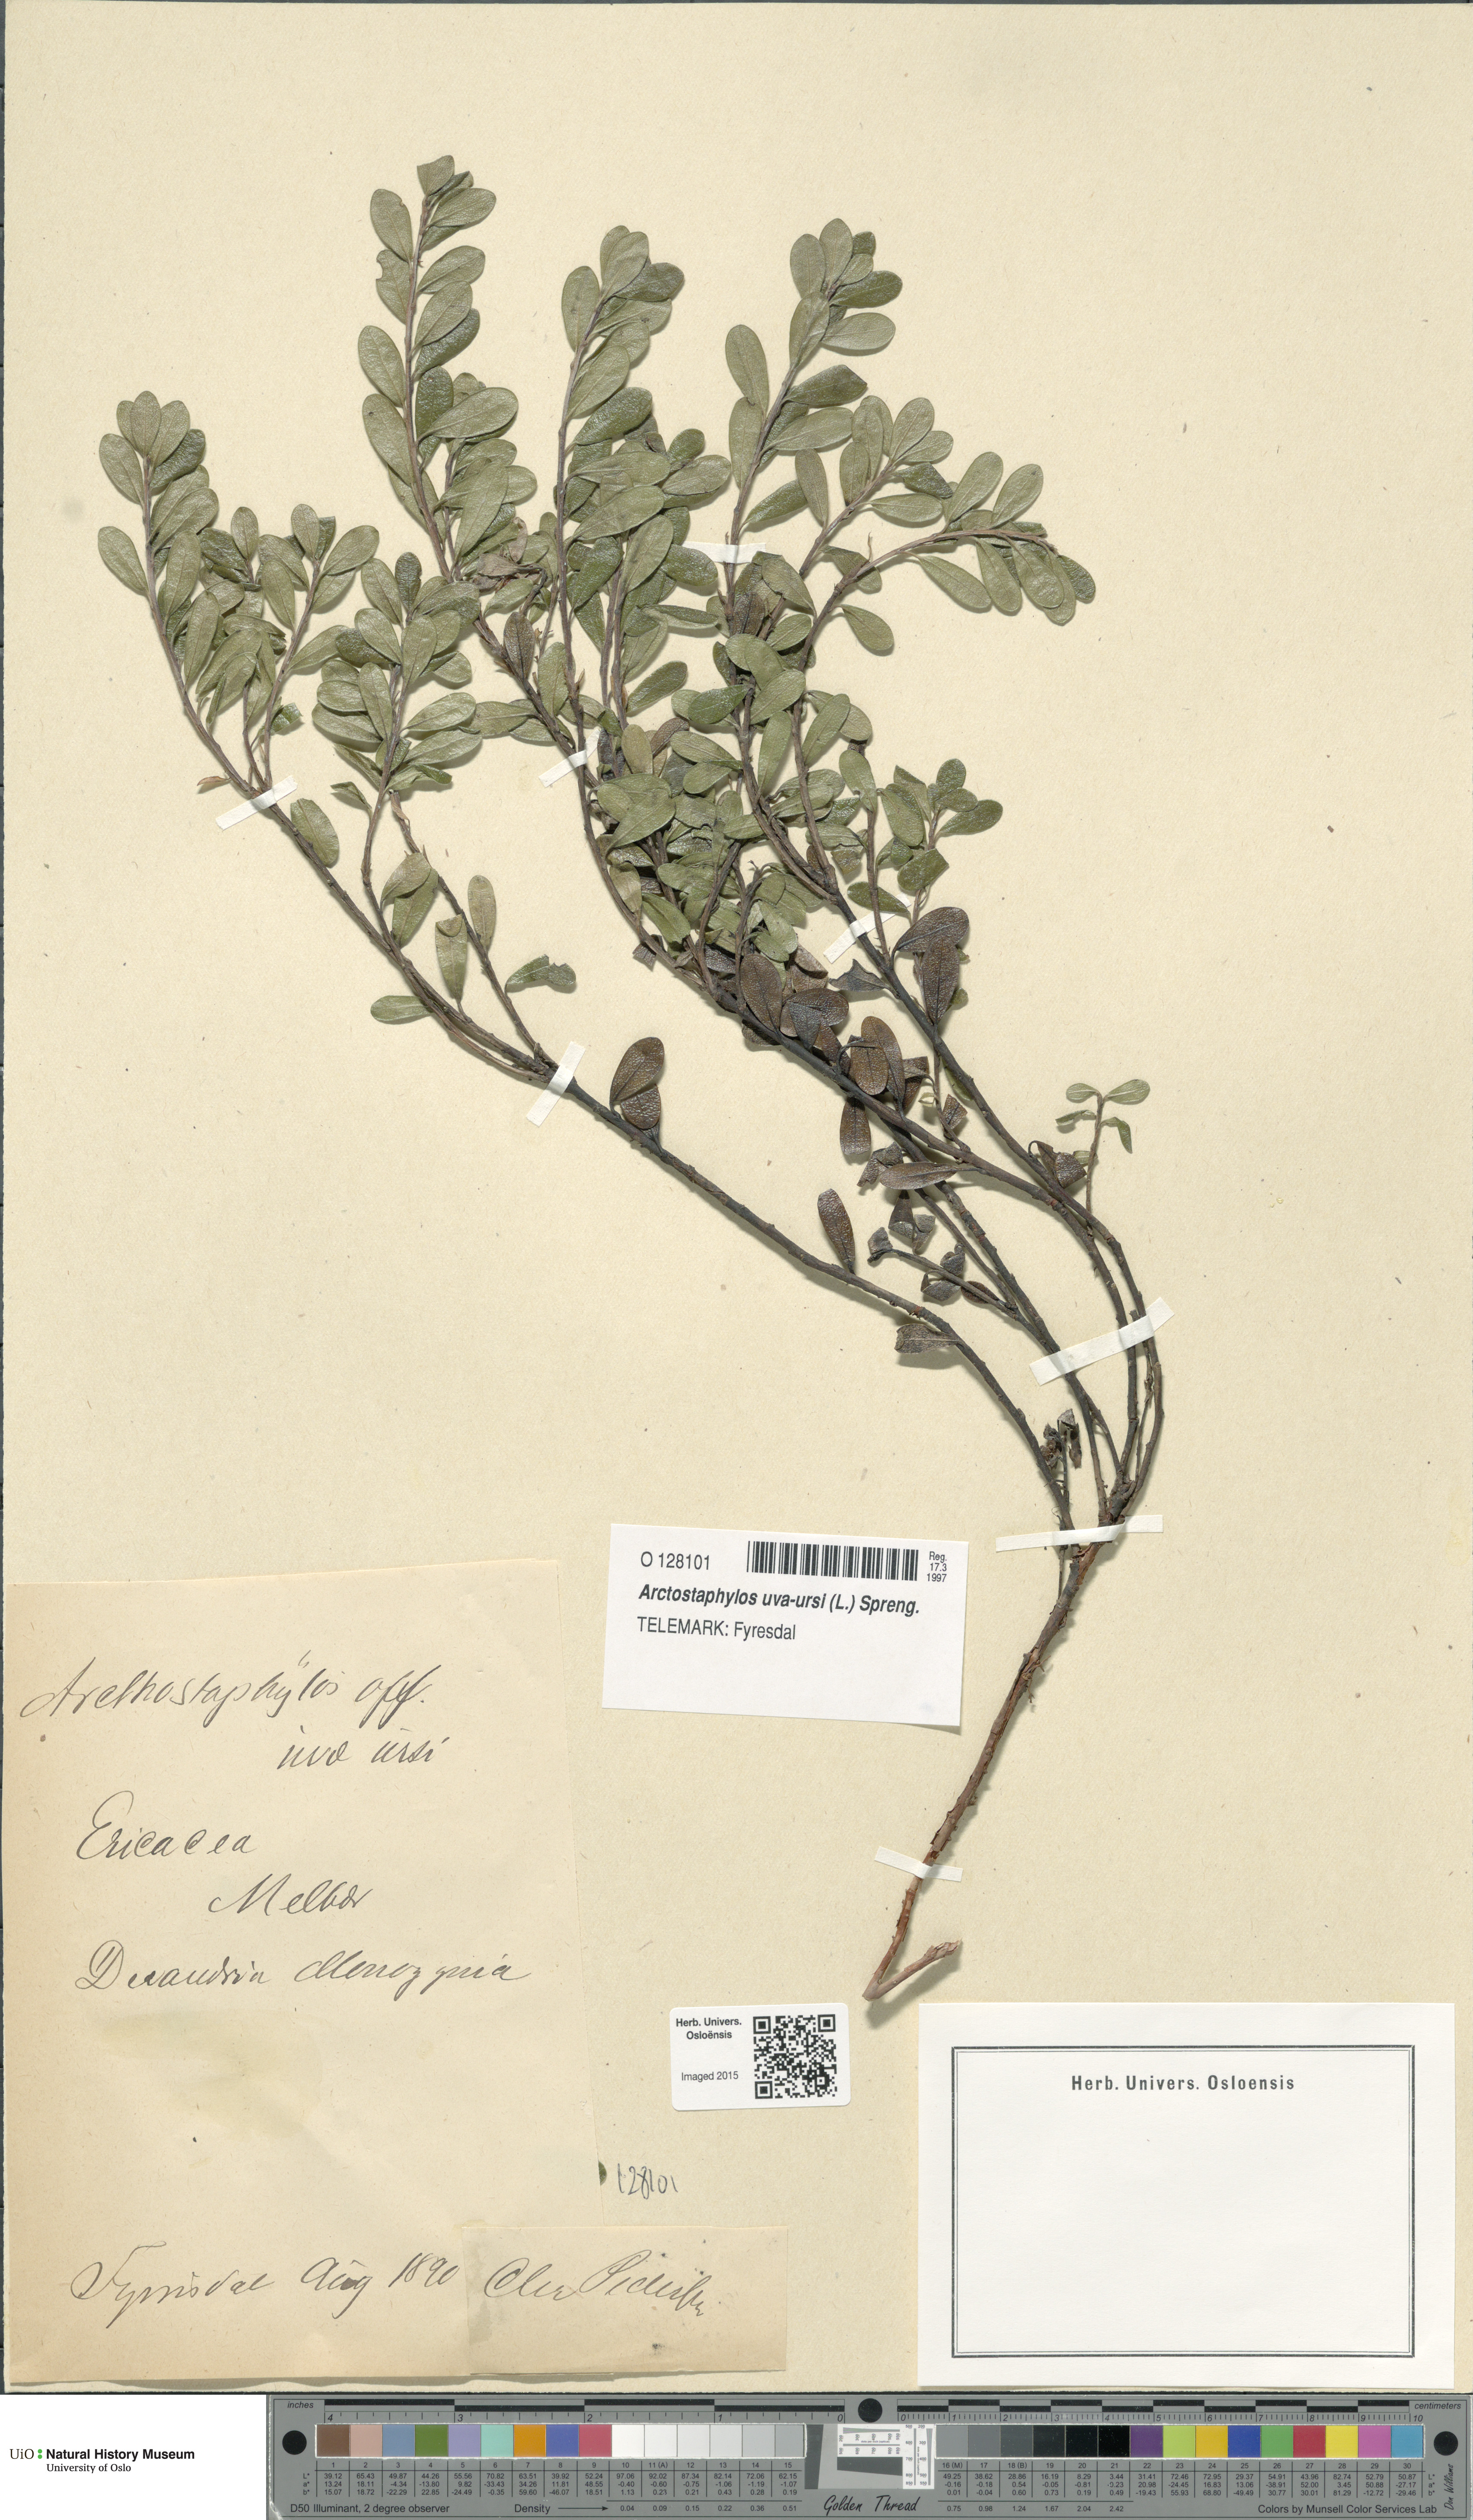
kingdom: Plantae
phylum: Tracheophyta
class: Magnoliopsida
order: Ericales
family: Ericaceae
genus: Arctostaphylos
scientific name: Arctostaphylos uva-ursi
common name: Bearberry
